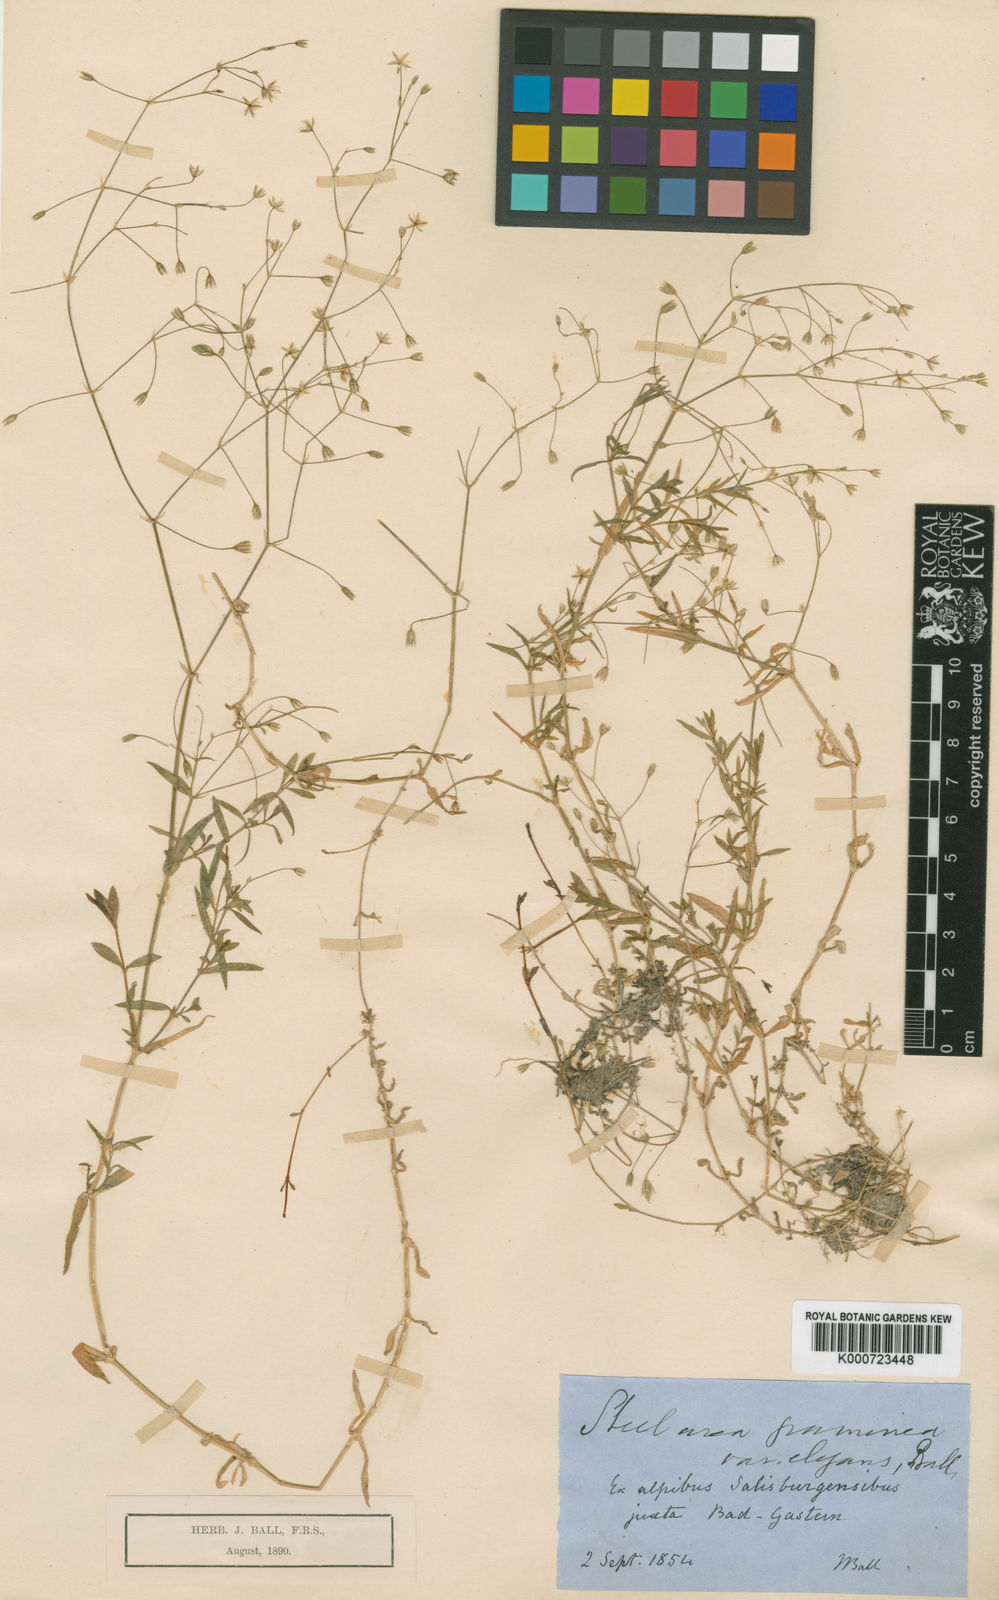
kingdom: Plantae
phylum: Tracheophyta
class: Magnoliopsida
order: Caryophyllales
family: Caryophyllaceae
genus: Stellaria
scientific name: Stellaria graminea
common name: Grass-like starwort
